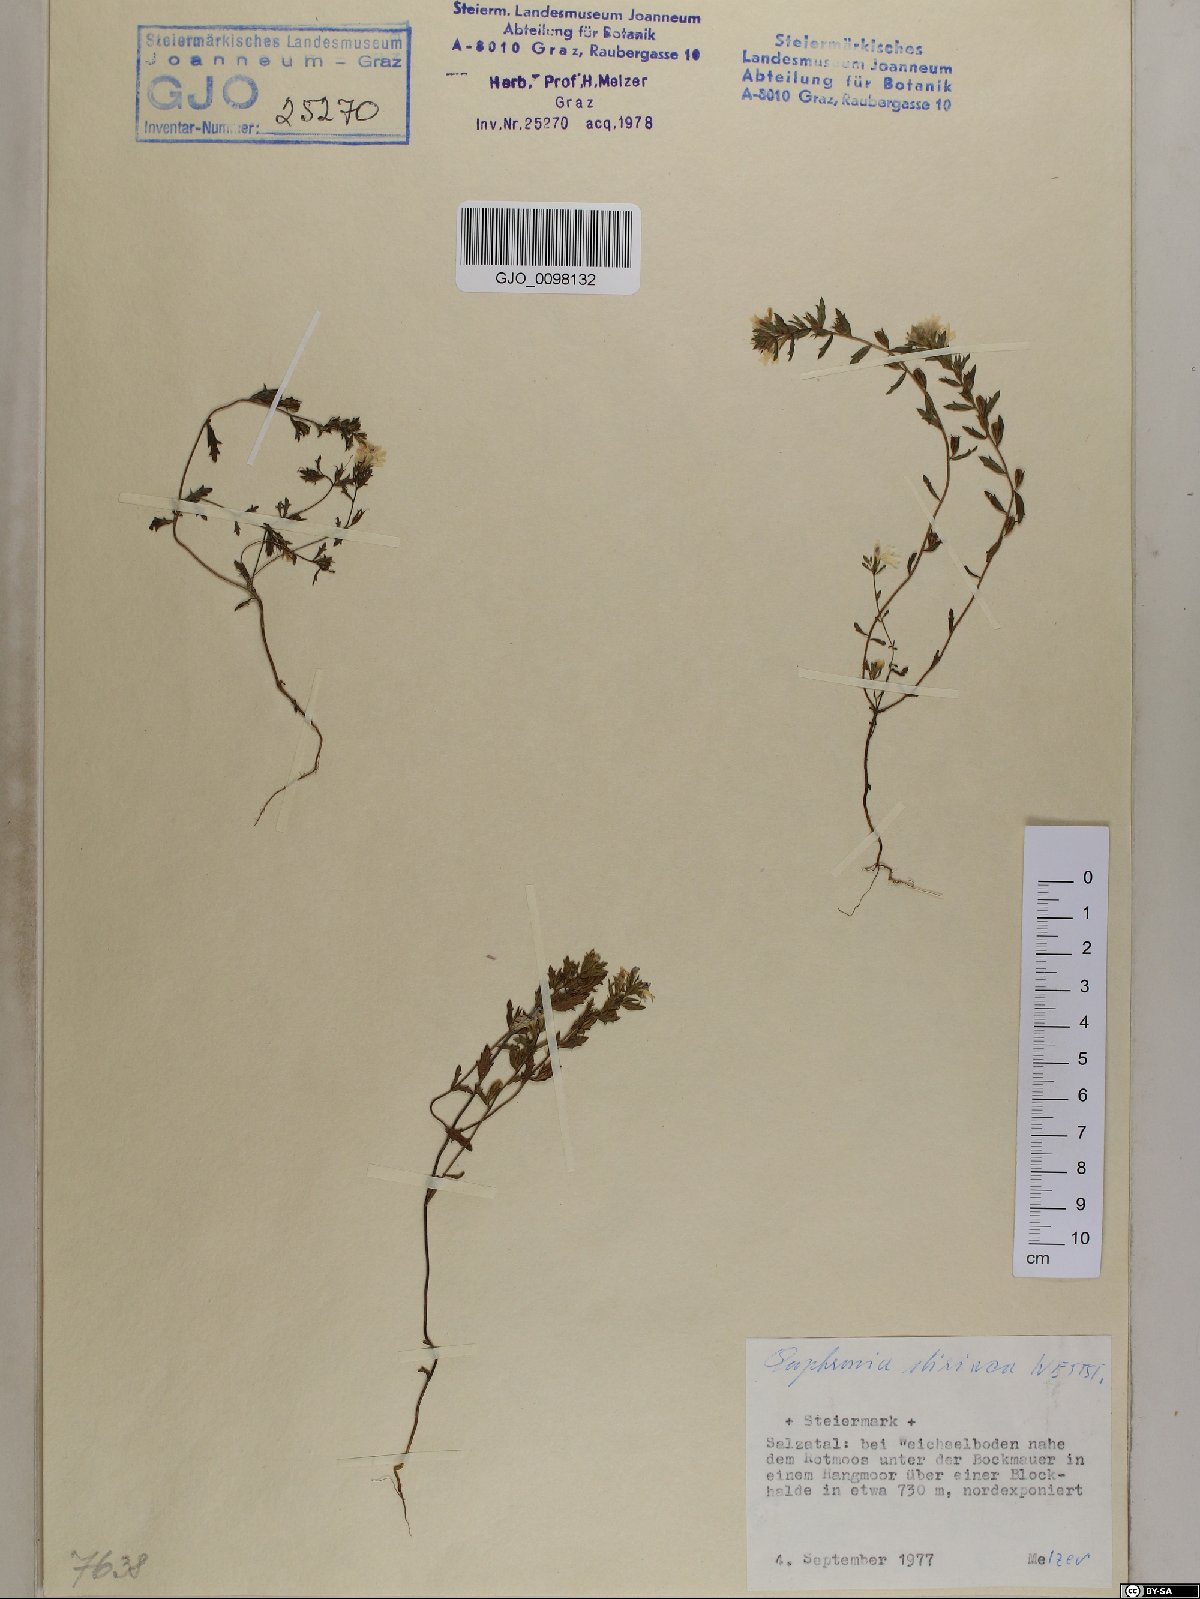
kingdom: Plantae
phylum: Tracheophyta
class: Magnoliopsida
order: Lamiales
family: Orobanchaceae
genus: Euphrasia
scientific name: Euphrasia cuspidata
